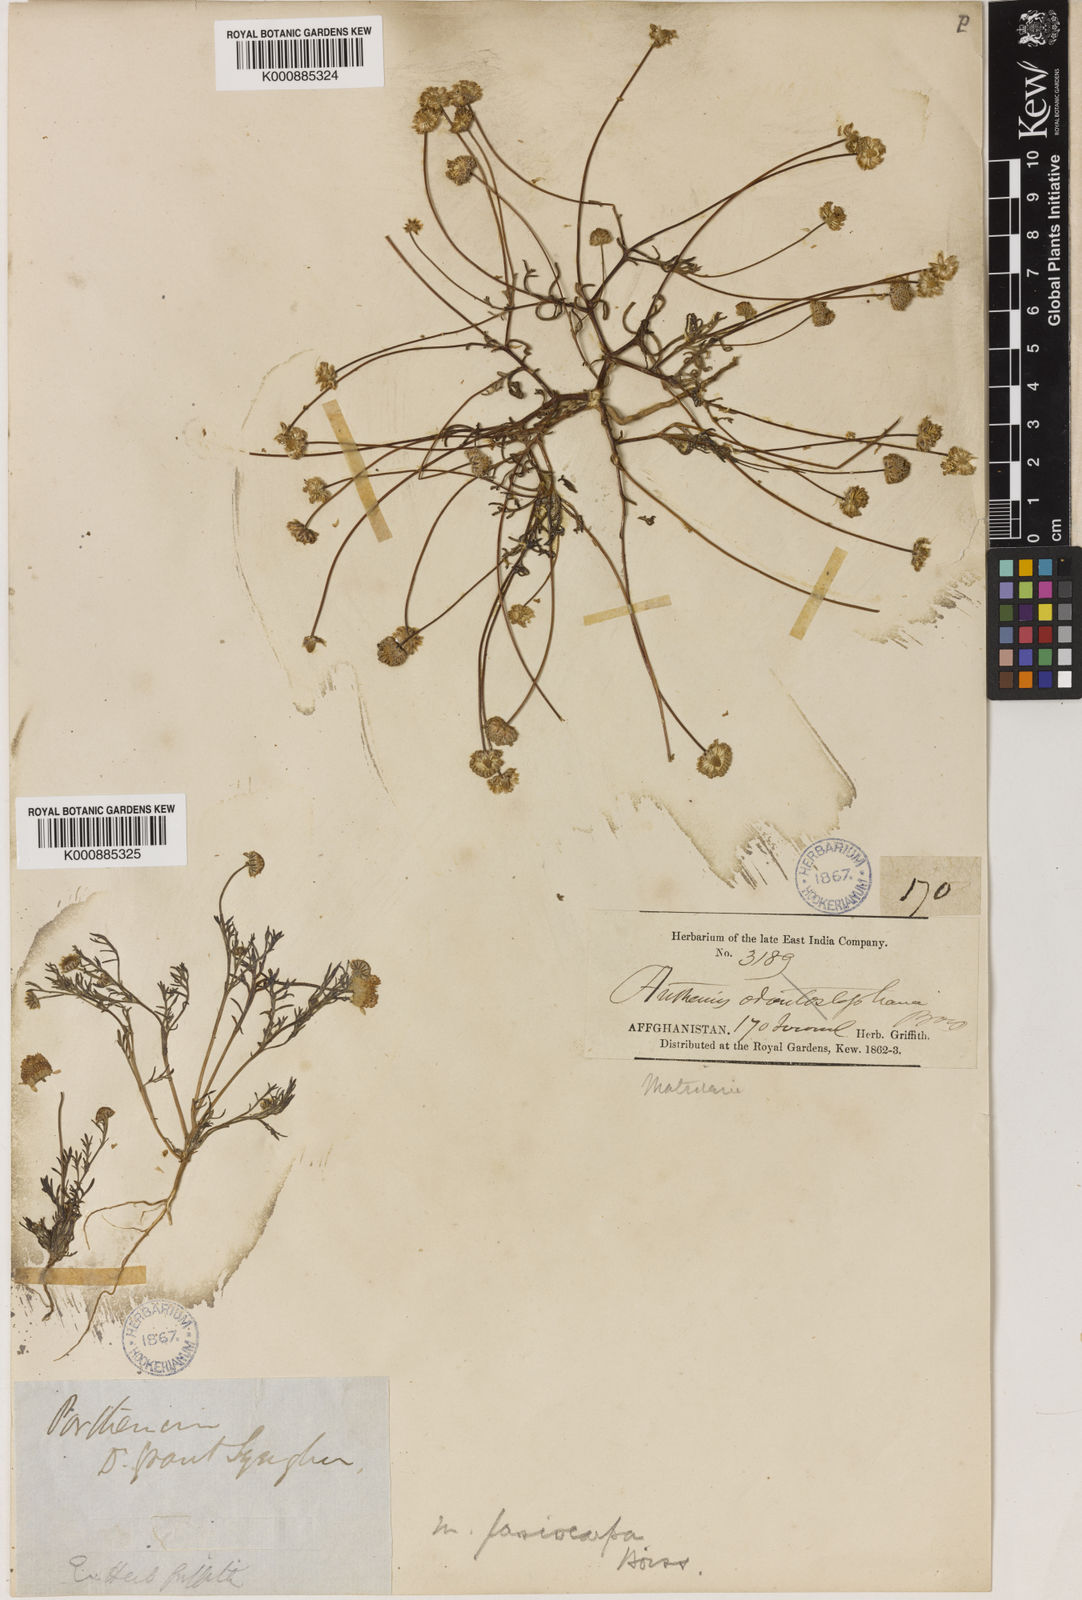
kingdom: Plantae
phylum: Tracheophyta
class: Magnoliopsida
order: Asterales
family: Asteraceae
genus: Microcephala
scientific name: Microcephala lamellata
